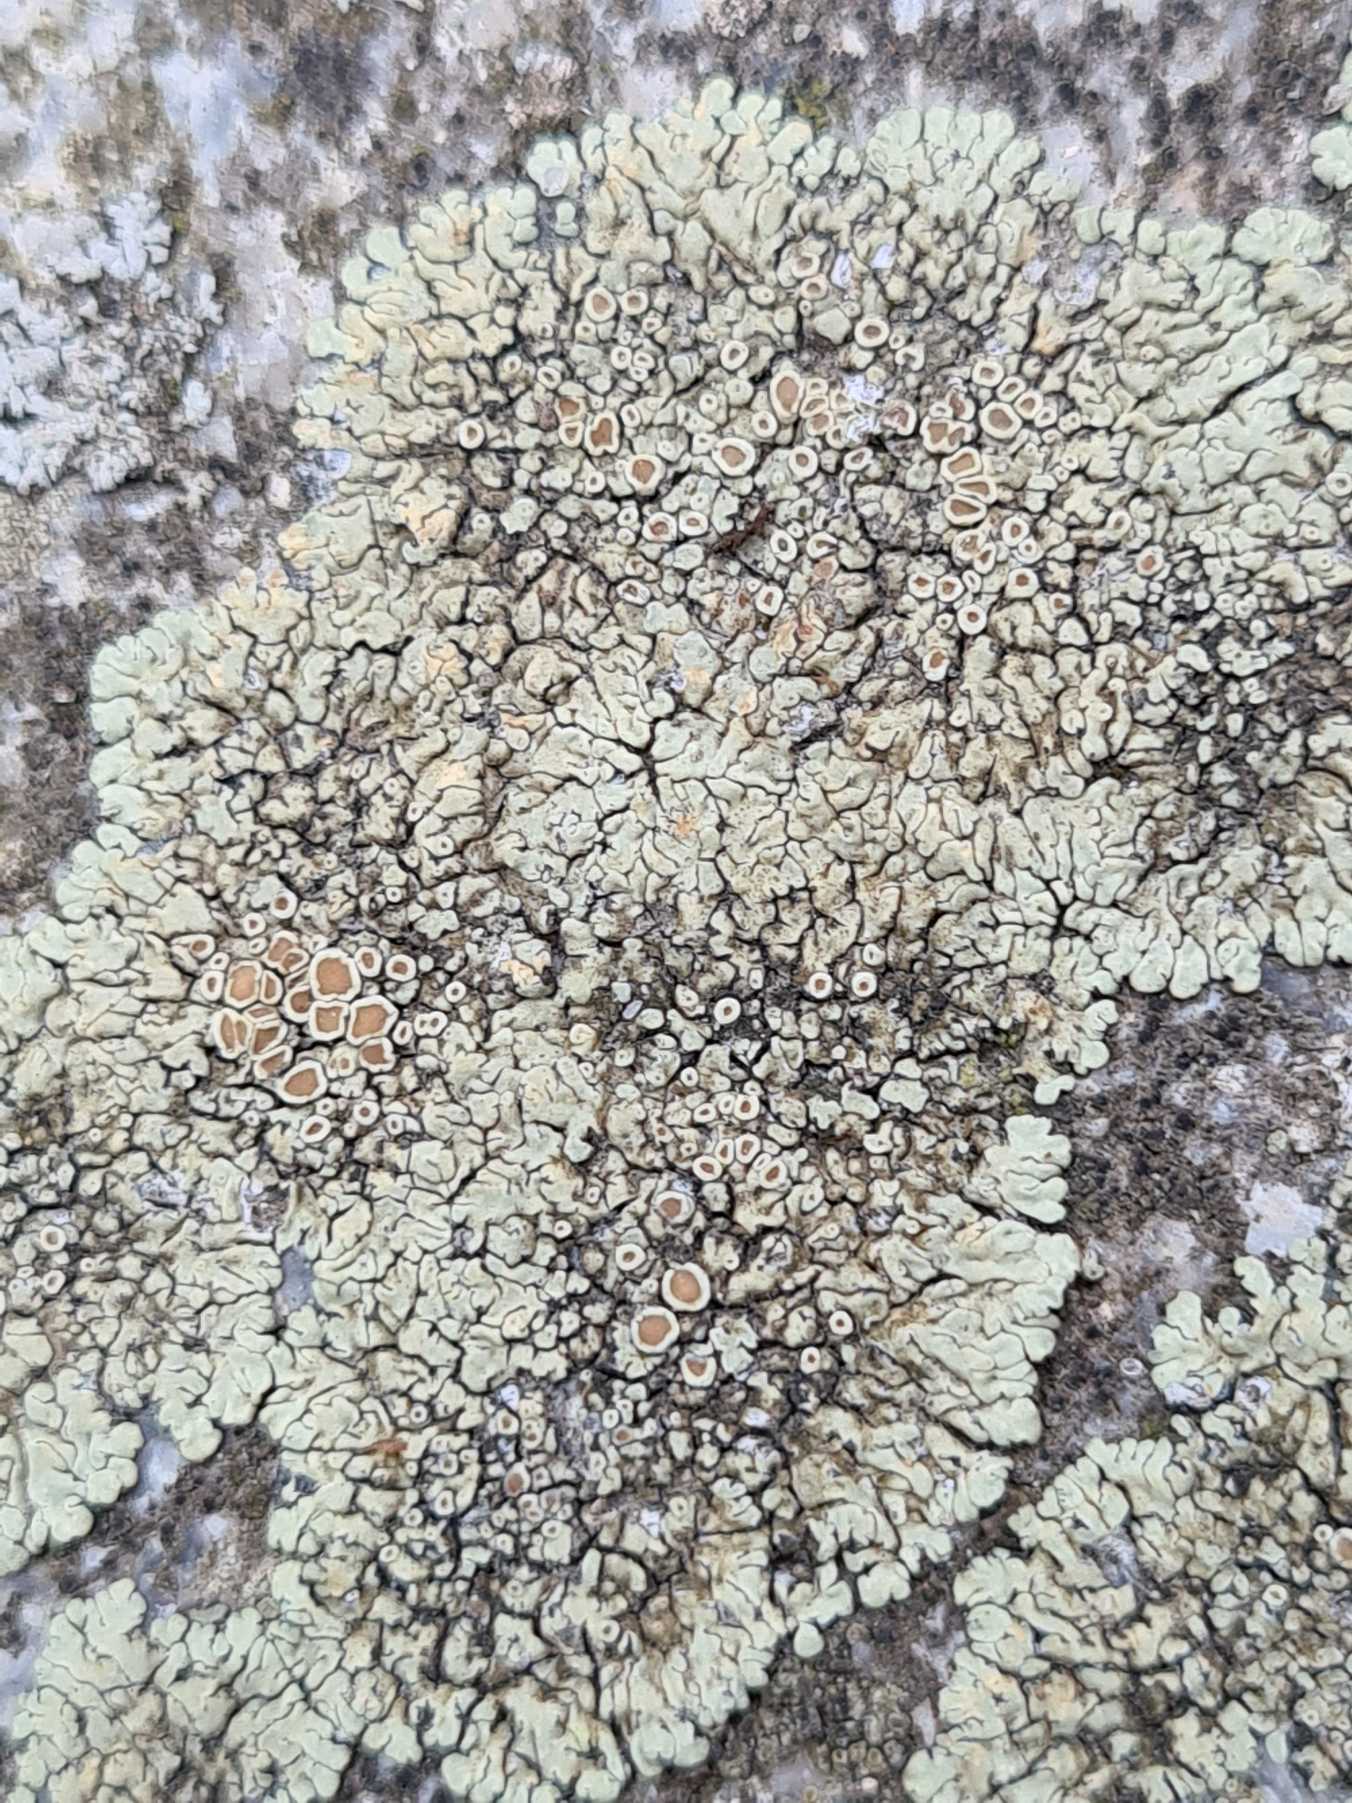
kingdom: Fungi
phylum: Ascomycota
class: Lecanoromycetes
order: Lecanorales
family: Lecanoraceae
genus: Protoparmeliopsis
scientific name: Protoparmeliopsis muralis
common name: Randfliget kantskivelav
